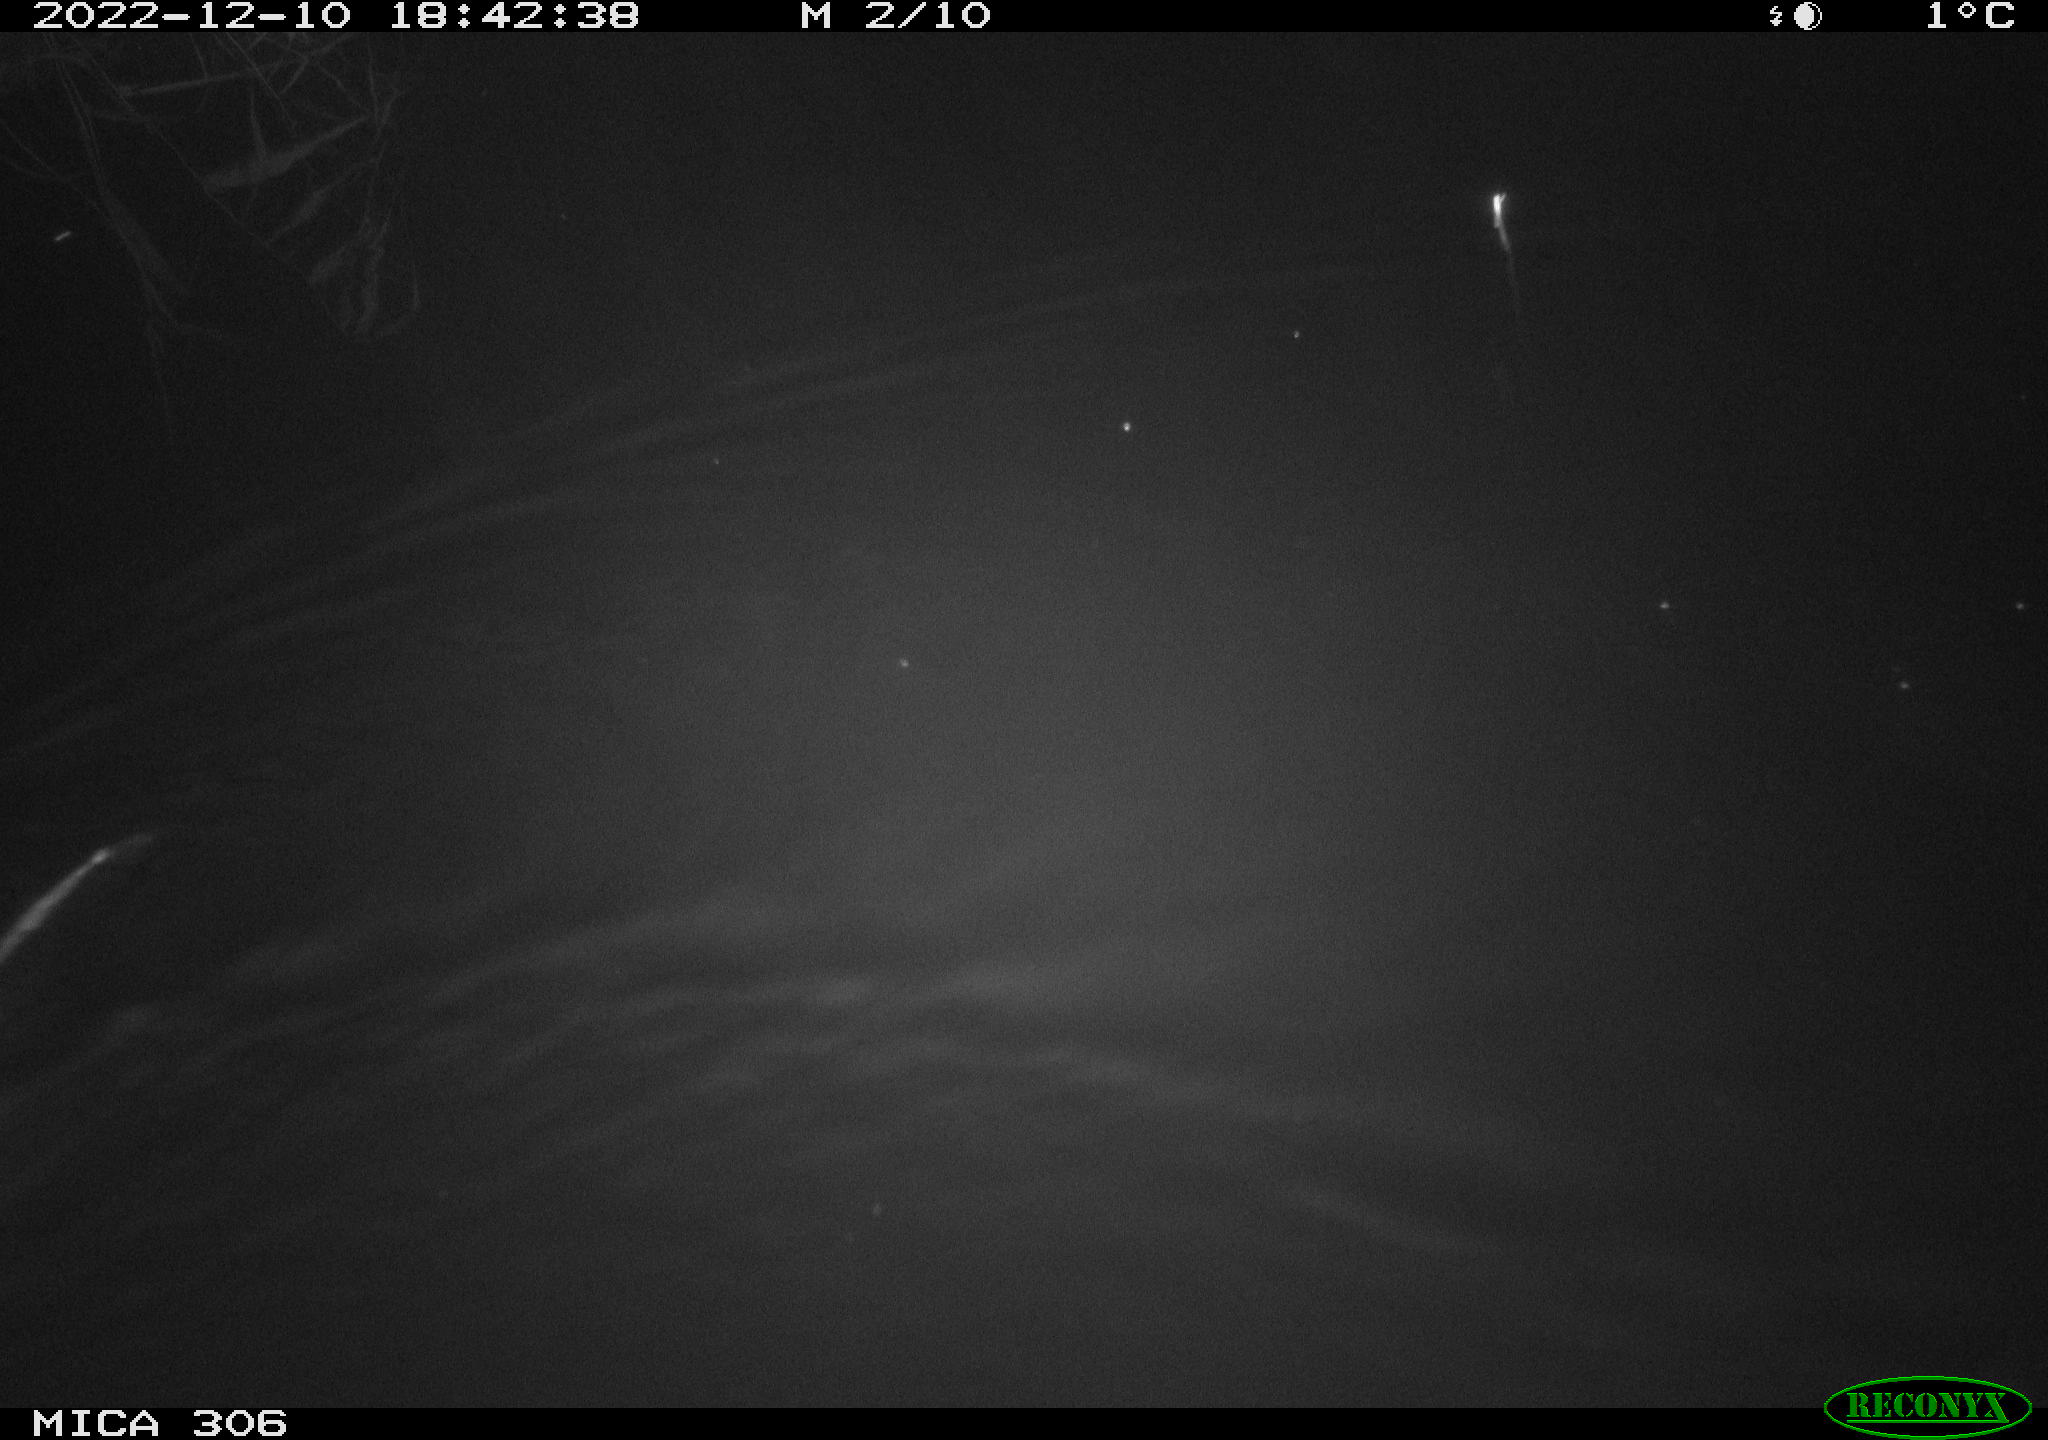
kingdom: Animalia
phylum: Chordata
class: Mammalia
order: Rodentia
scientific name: Rodentia
